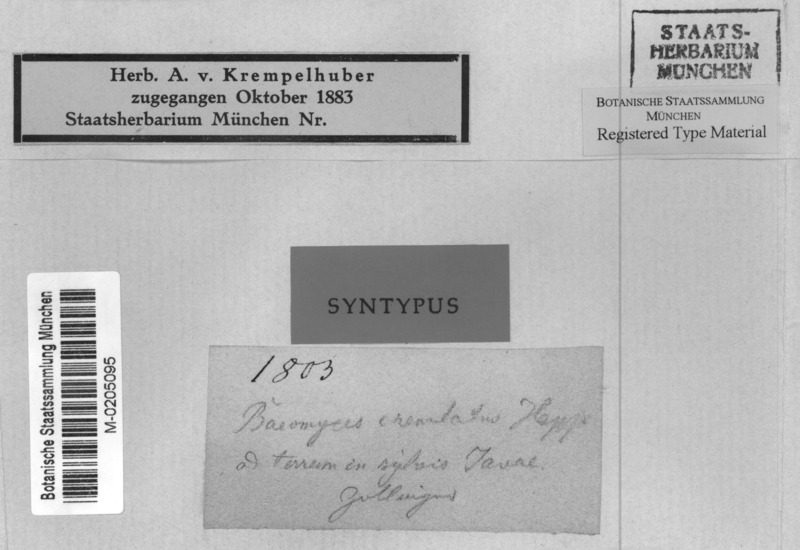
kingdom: Fungi
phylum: Ascomycota
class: Lecanoromycetes
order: Baeomycetales
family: Baeomycetaceae
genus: Baeomyces
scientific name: Baeomyces crenulatus
